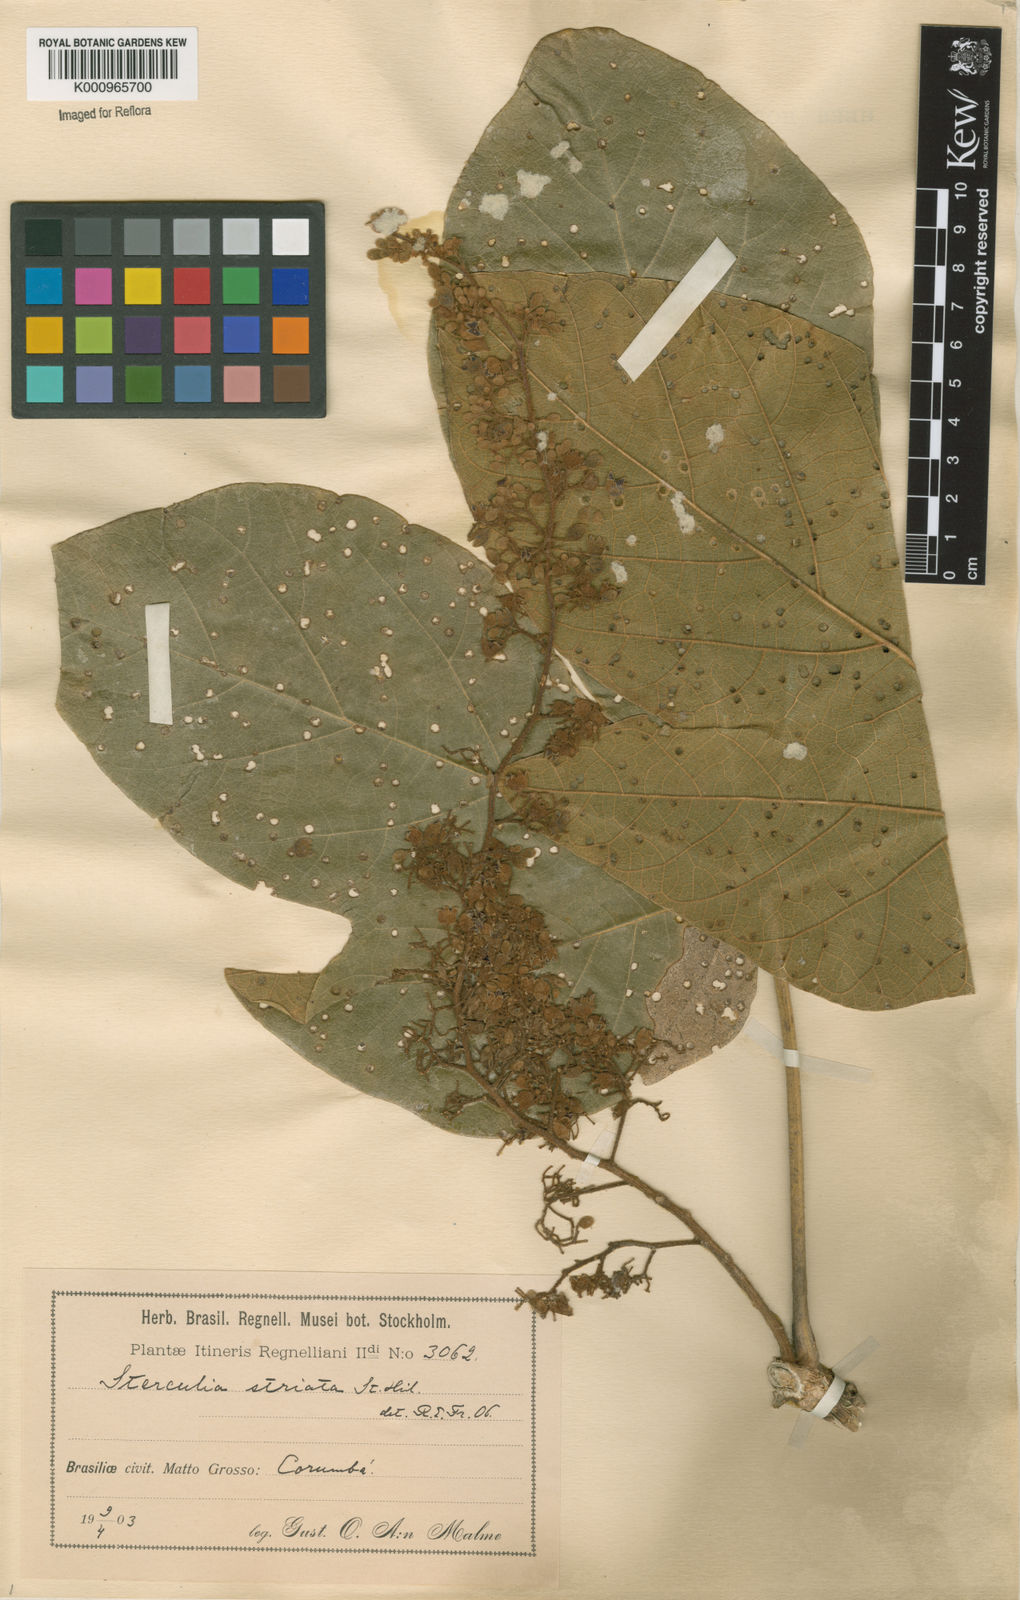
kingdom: Plantae
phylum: Tracheophyta
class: Magnoliopsida
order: Malvales
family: Malvaceae
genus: Sterculia
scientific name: Sterculia striata
